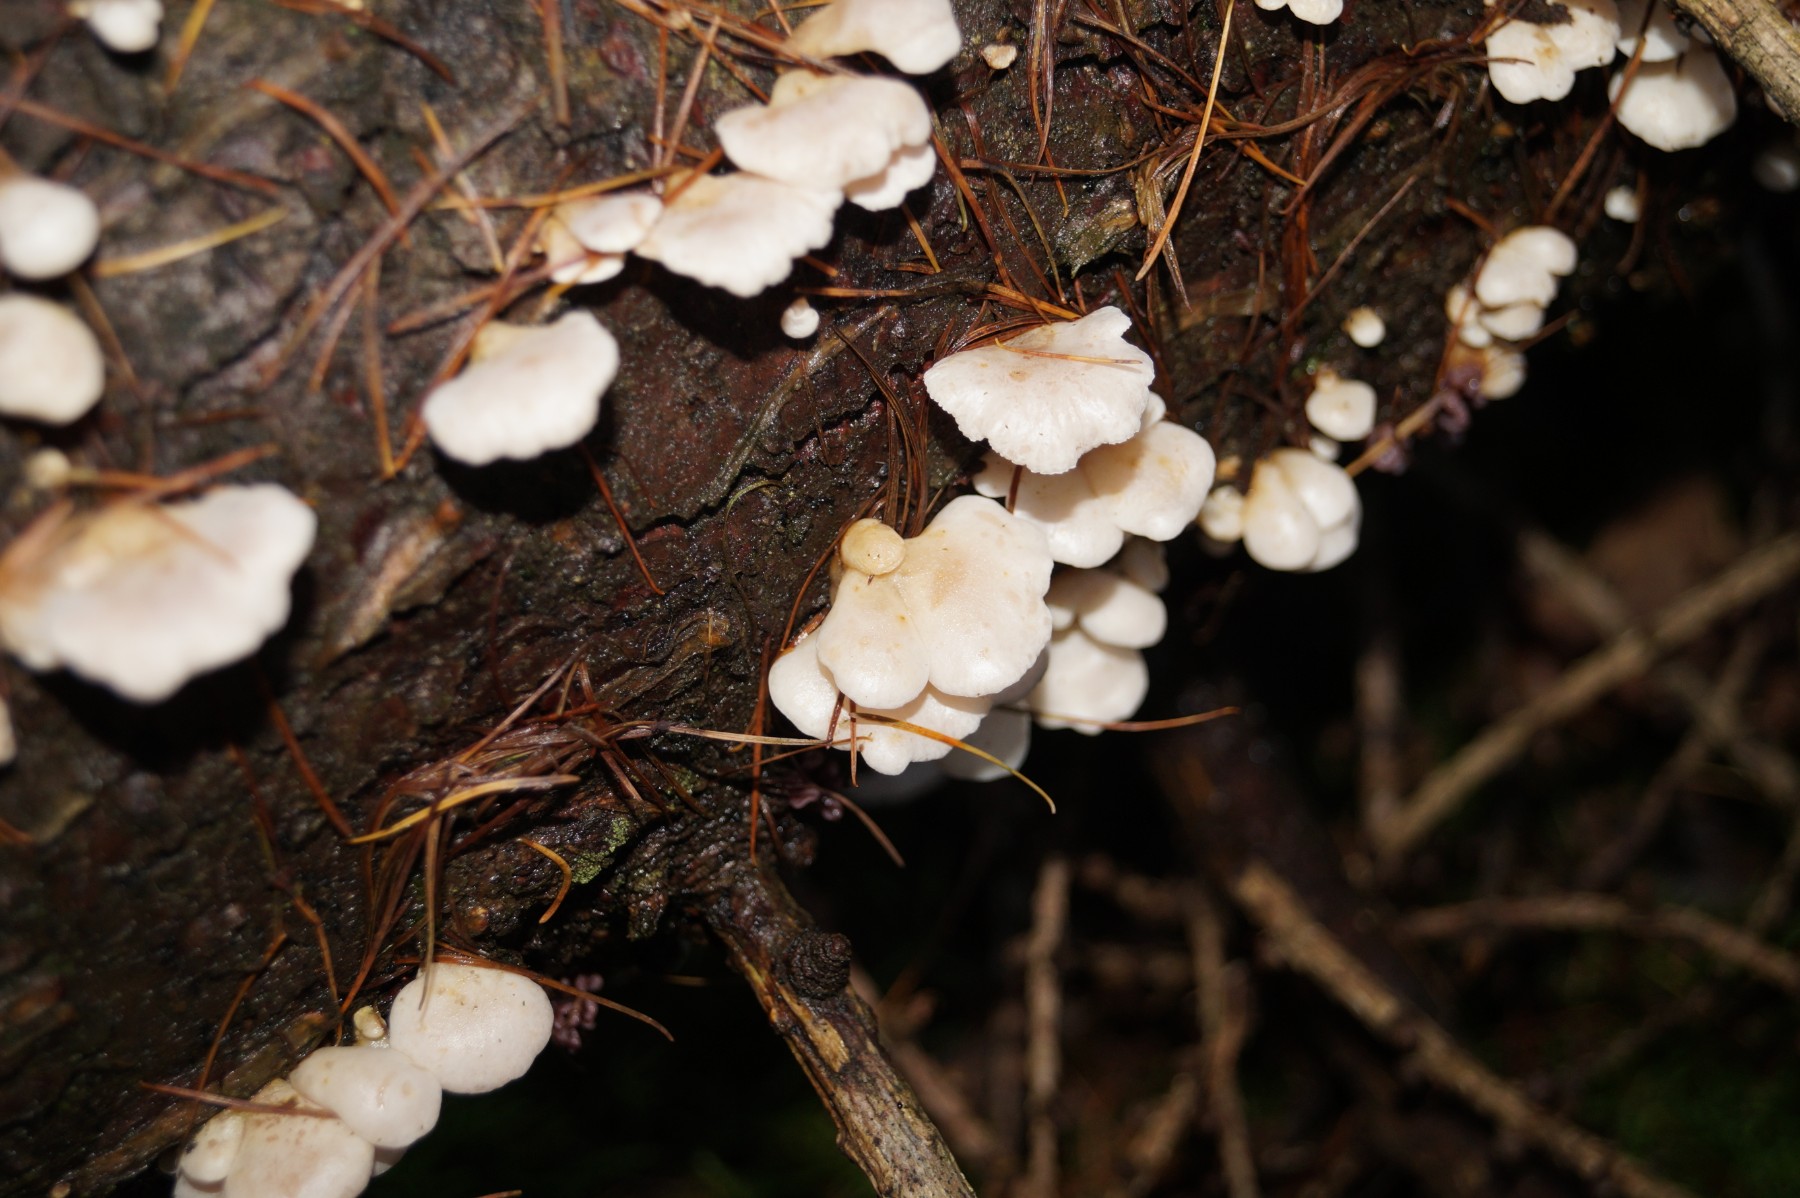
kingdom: Fungi
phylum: Basidiomycota
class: Agaricomycetes
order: Agaricales
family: Mycenaceae
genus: Panellus
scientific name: Panellus mitis
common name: mild epaulethat
